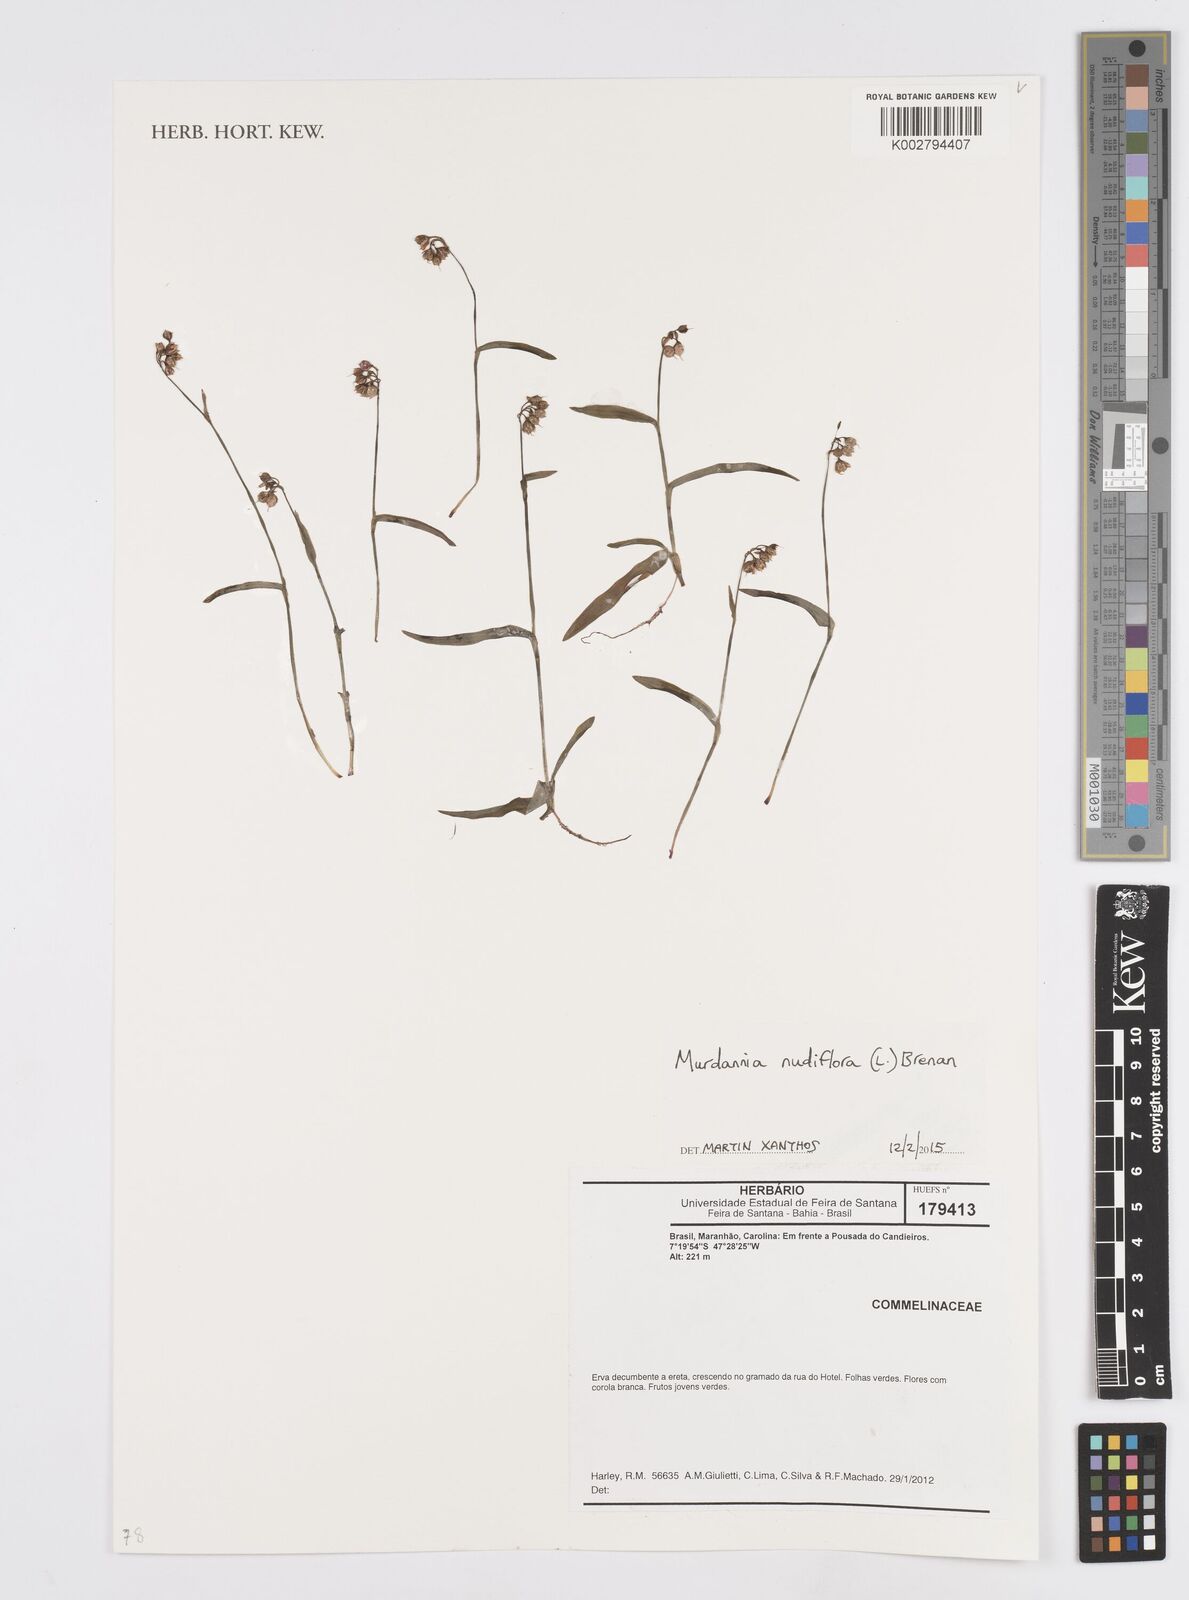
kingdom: Plantae
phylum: Tracheophyta
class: Liliopsida
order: Commelinales
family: Commelinaceae
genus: Murdannia
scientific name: Murdannia nudiflora
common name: Nakedstem dewflower
